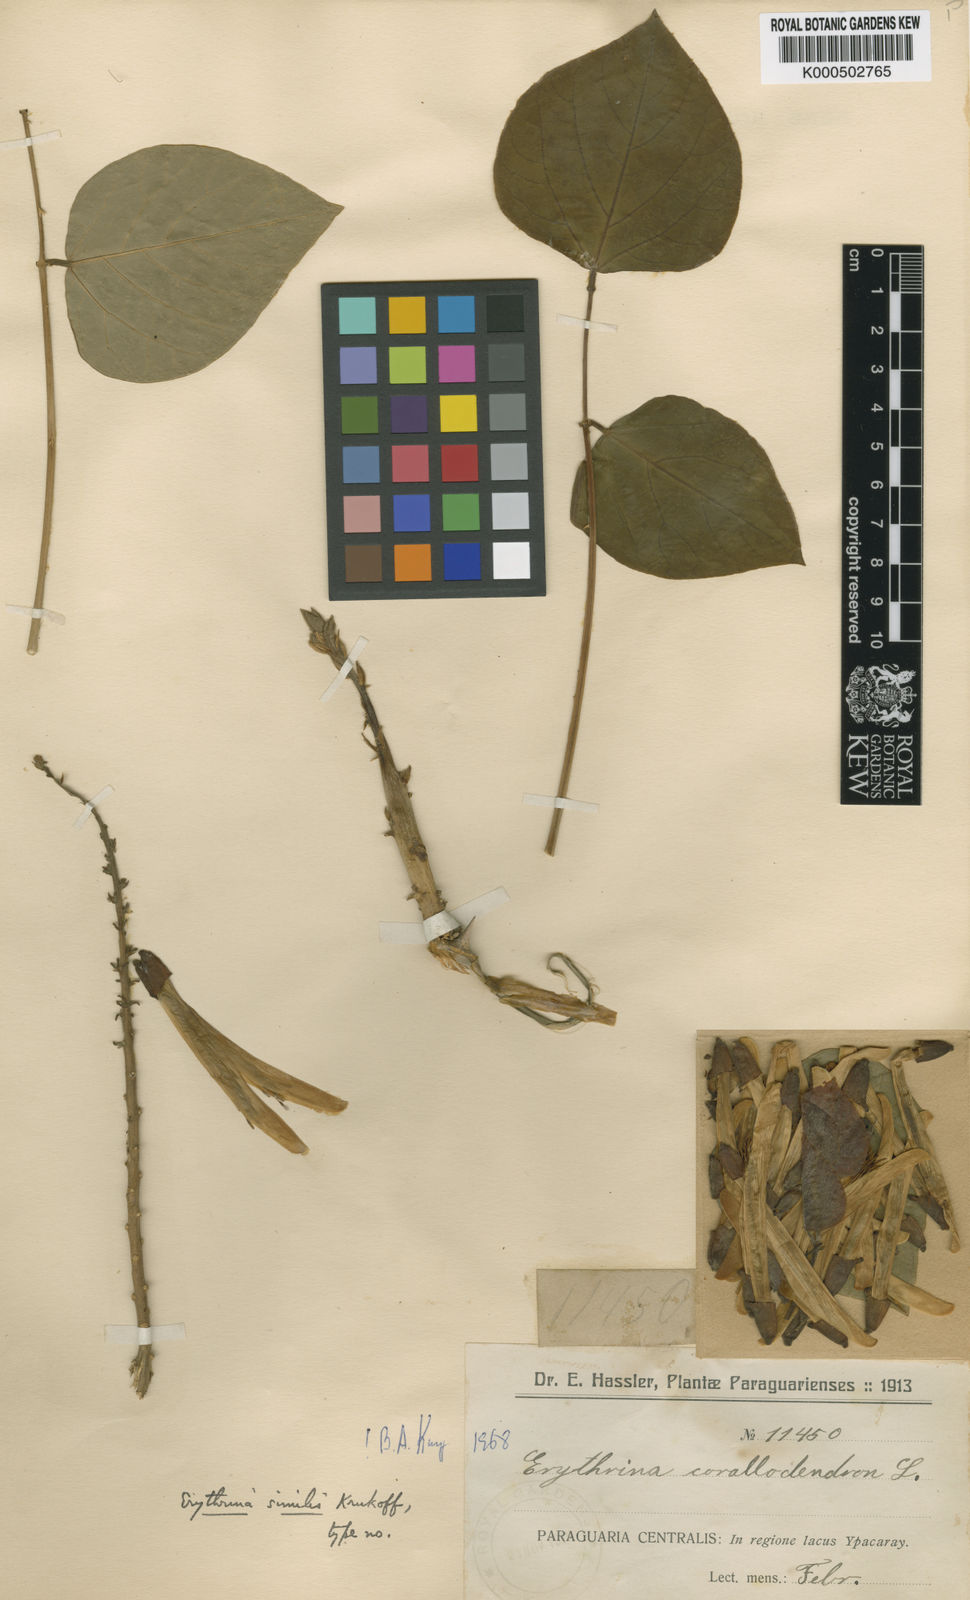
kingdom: Plantae
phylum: Tracheophyta
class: Magnoliopsida
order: Fabales
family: Fabaceae
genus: Erythrina
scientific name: Erythrina similis
